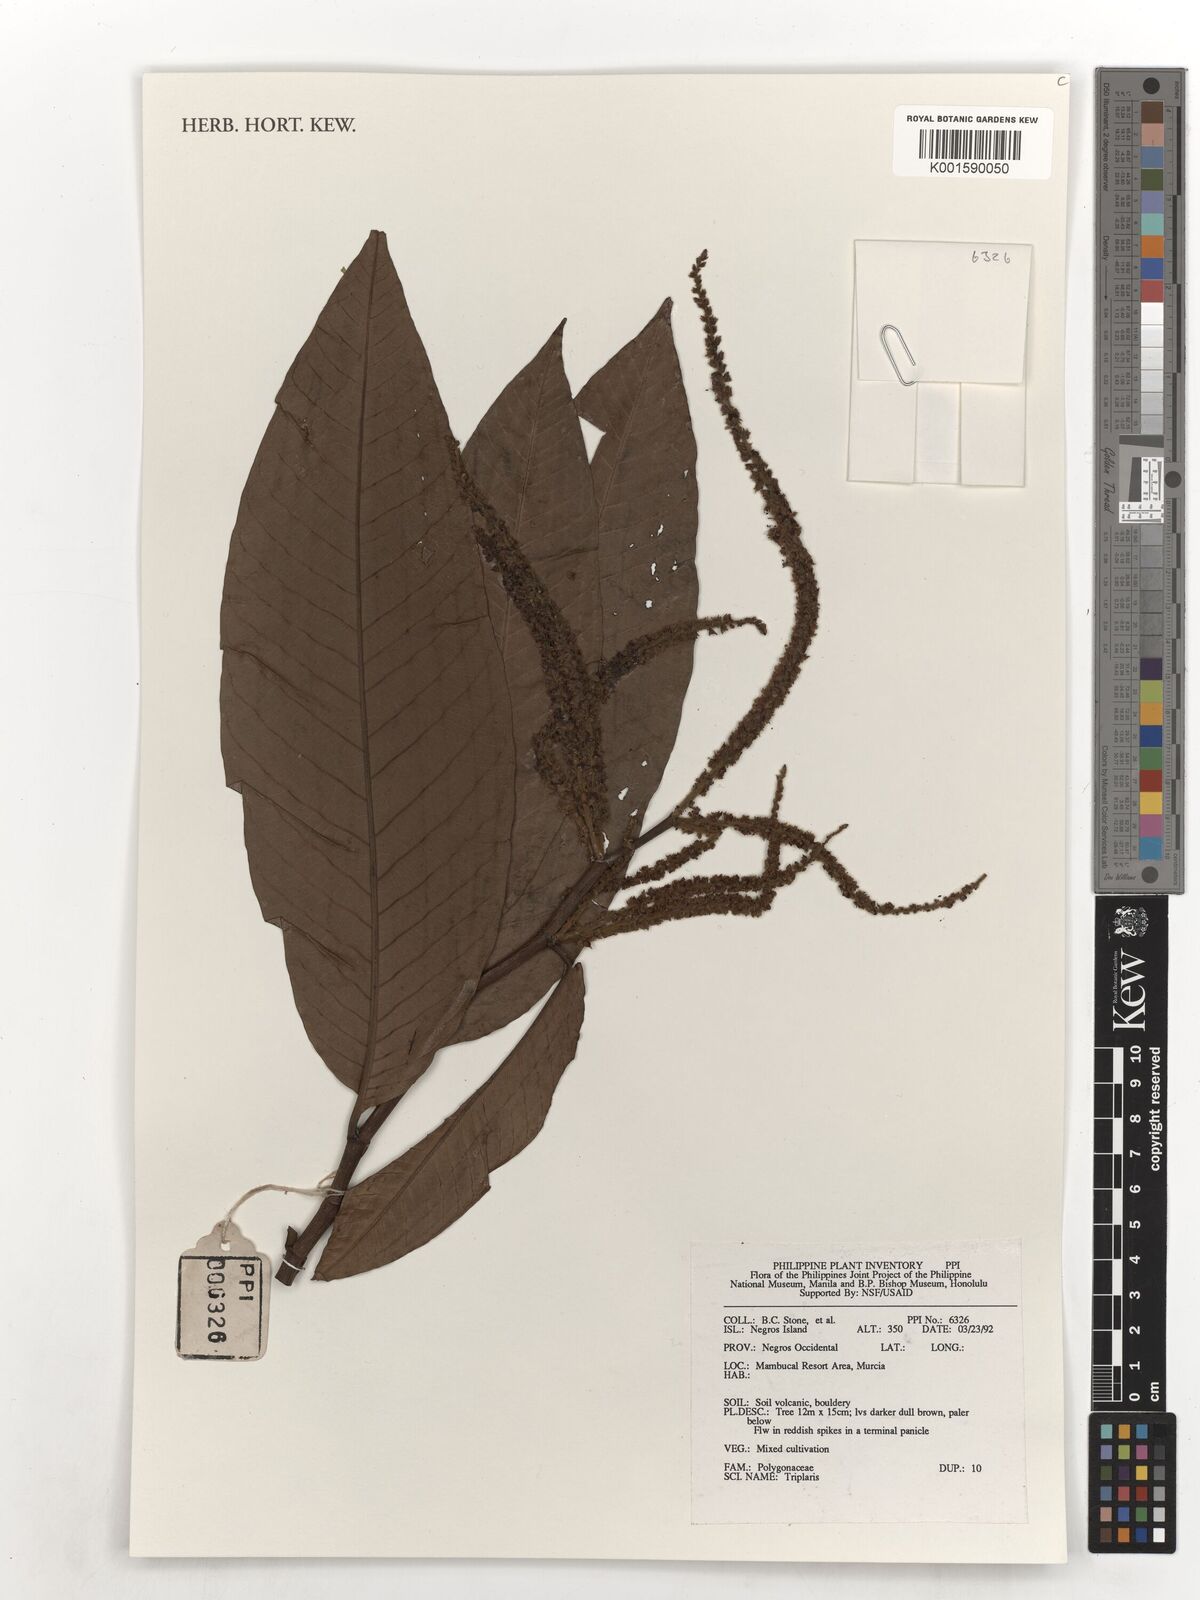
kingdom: Plantae
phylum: Tracheophyta
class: Magnoliopsida
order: Caryophyllales
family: Polygonaceae
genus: Triplaris
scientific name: Triplaris
